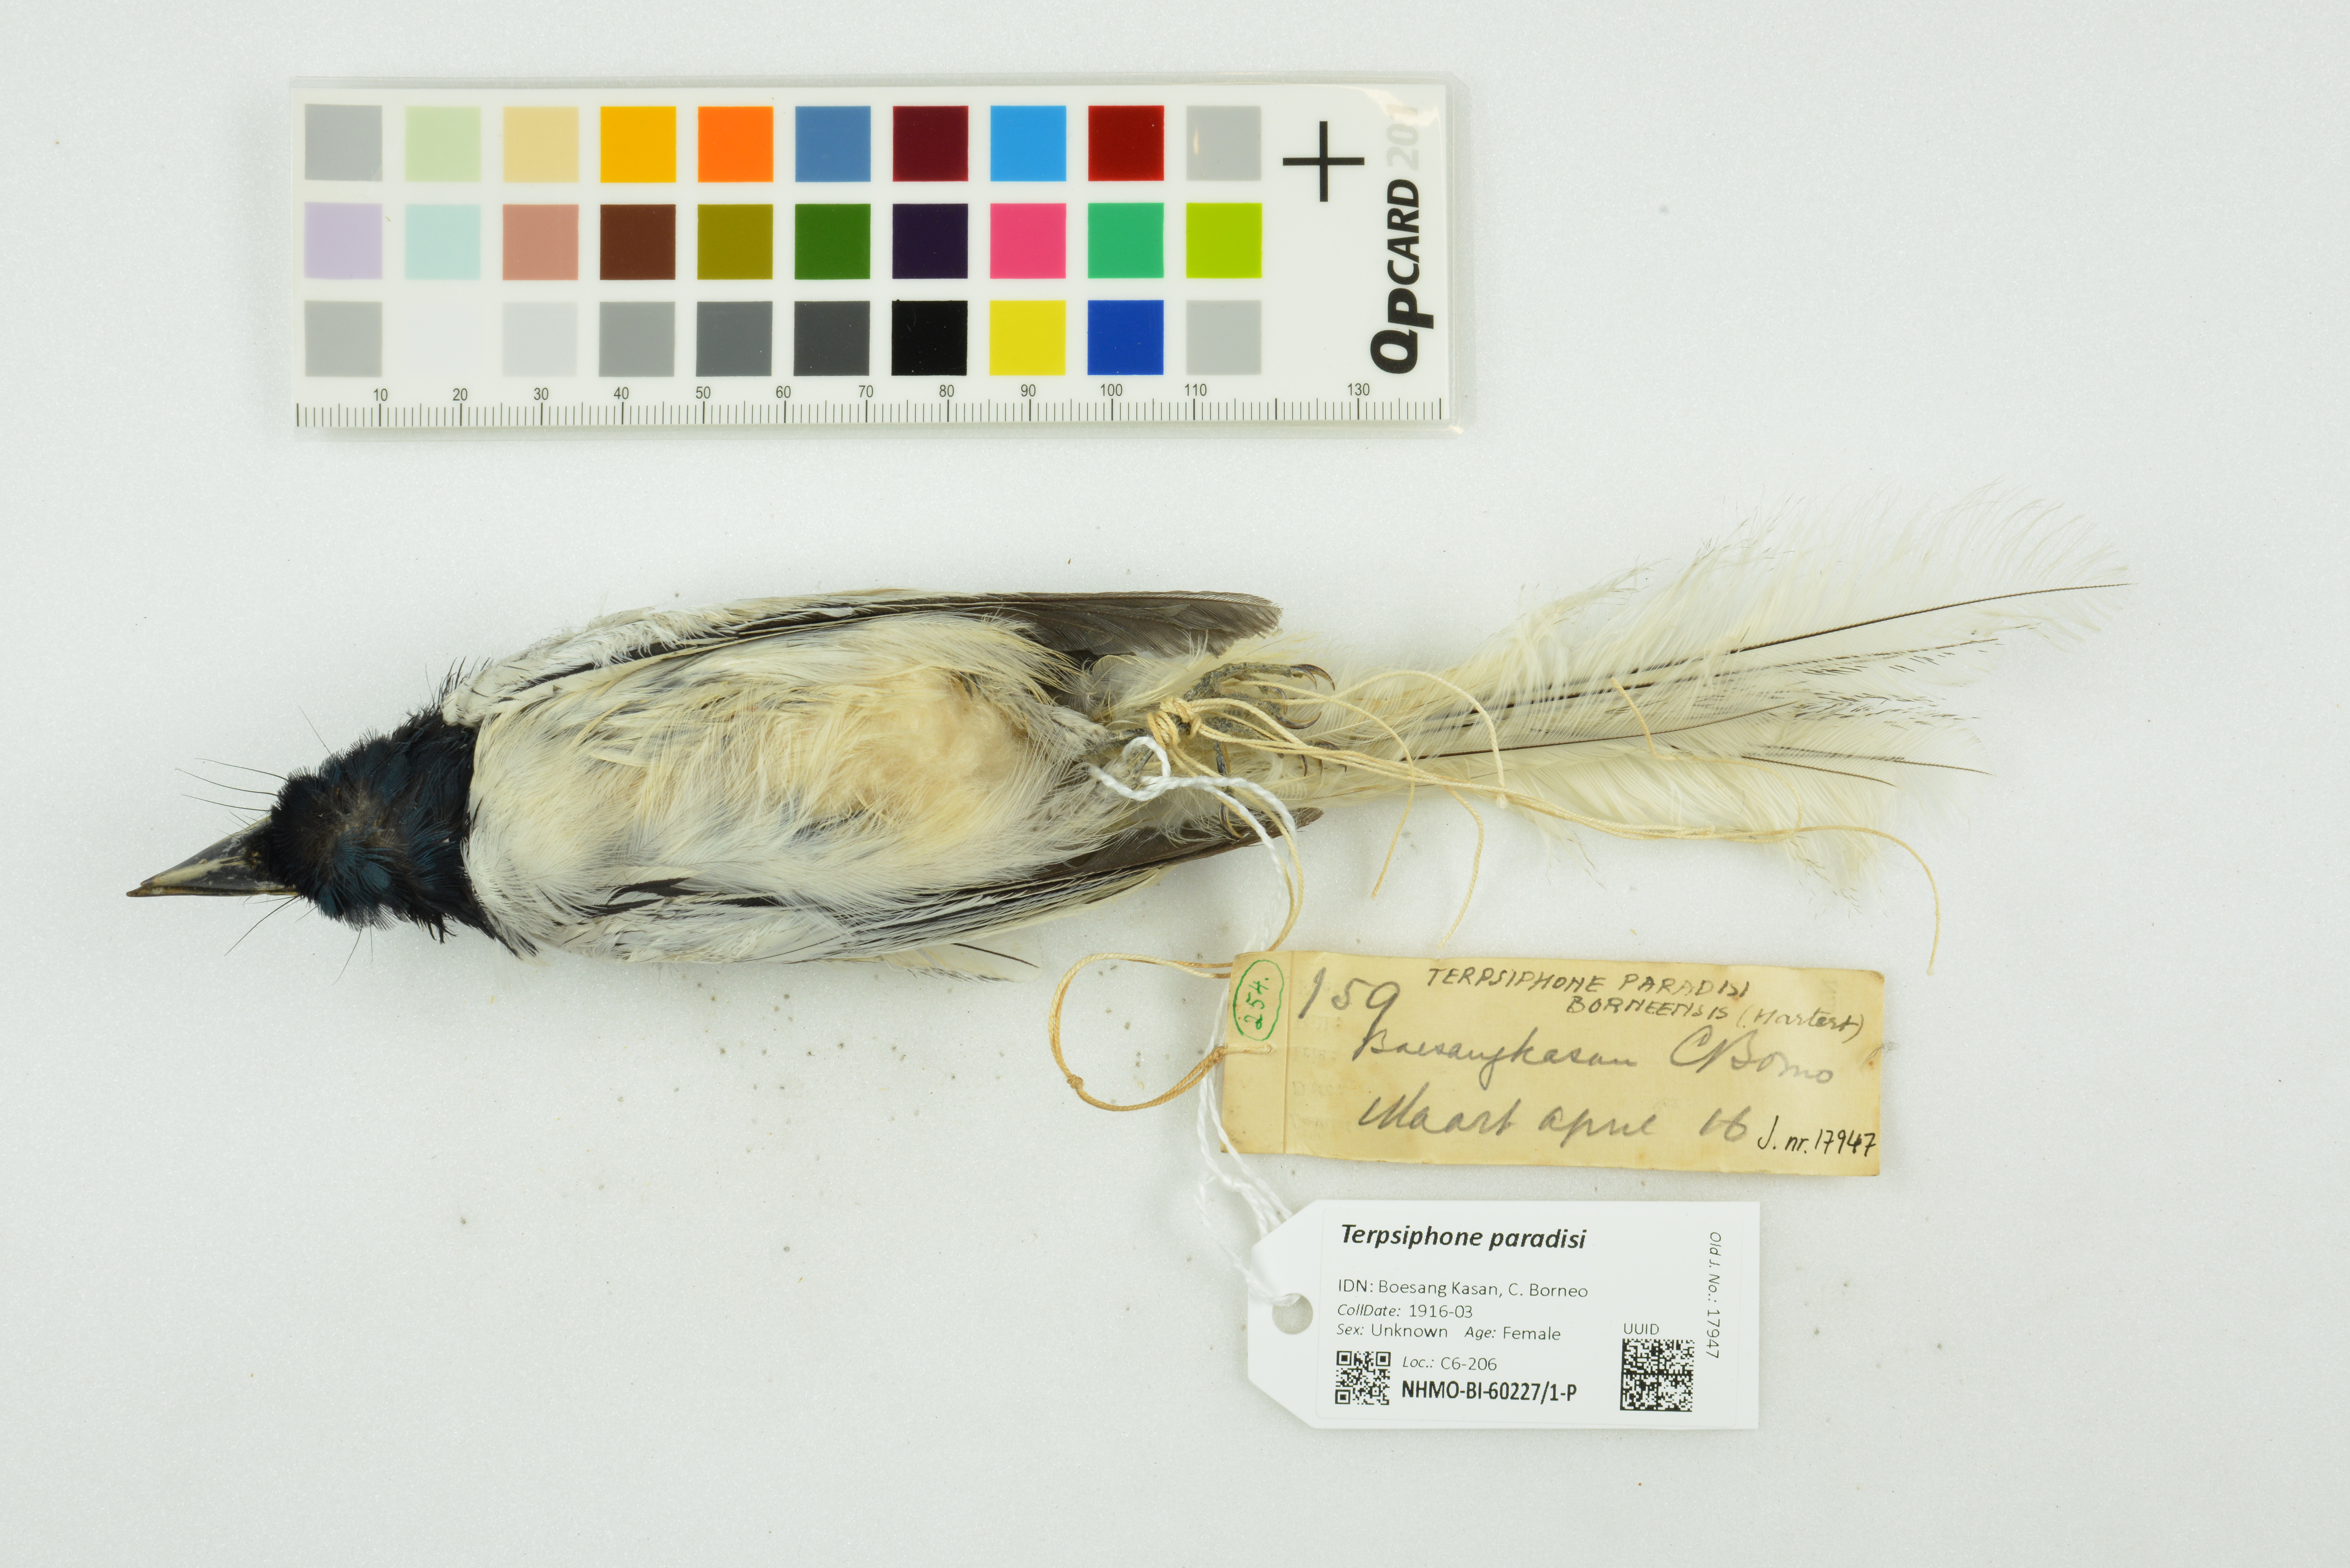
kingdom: Animalia
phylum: Chordata
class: Aves
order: Passeriformes
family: Monarchidae
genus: Terpsiphone
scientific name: Terpsiphone paradisi
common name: Indian paradise flycatcher
